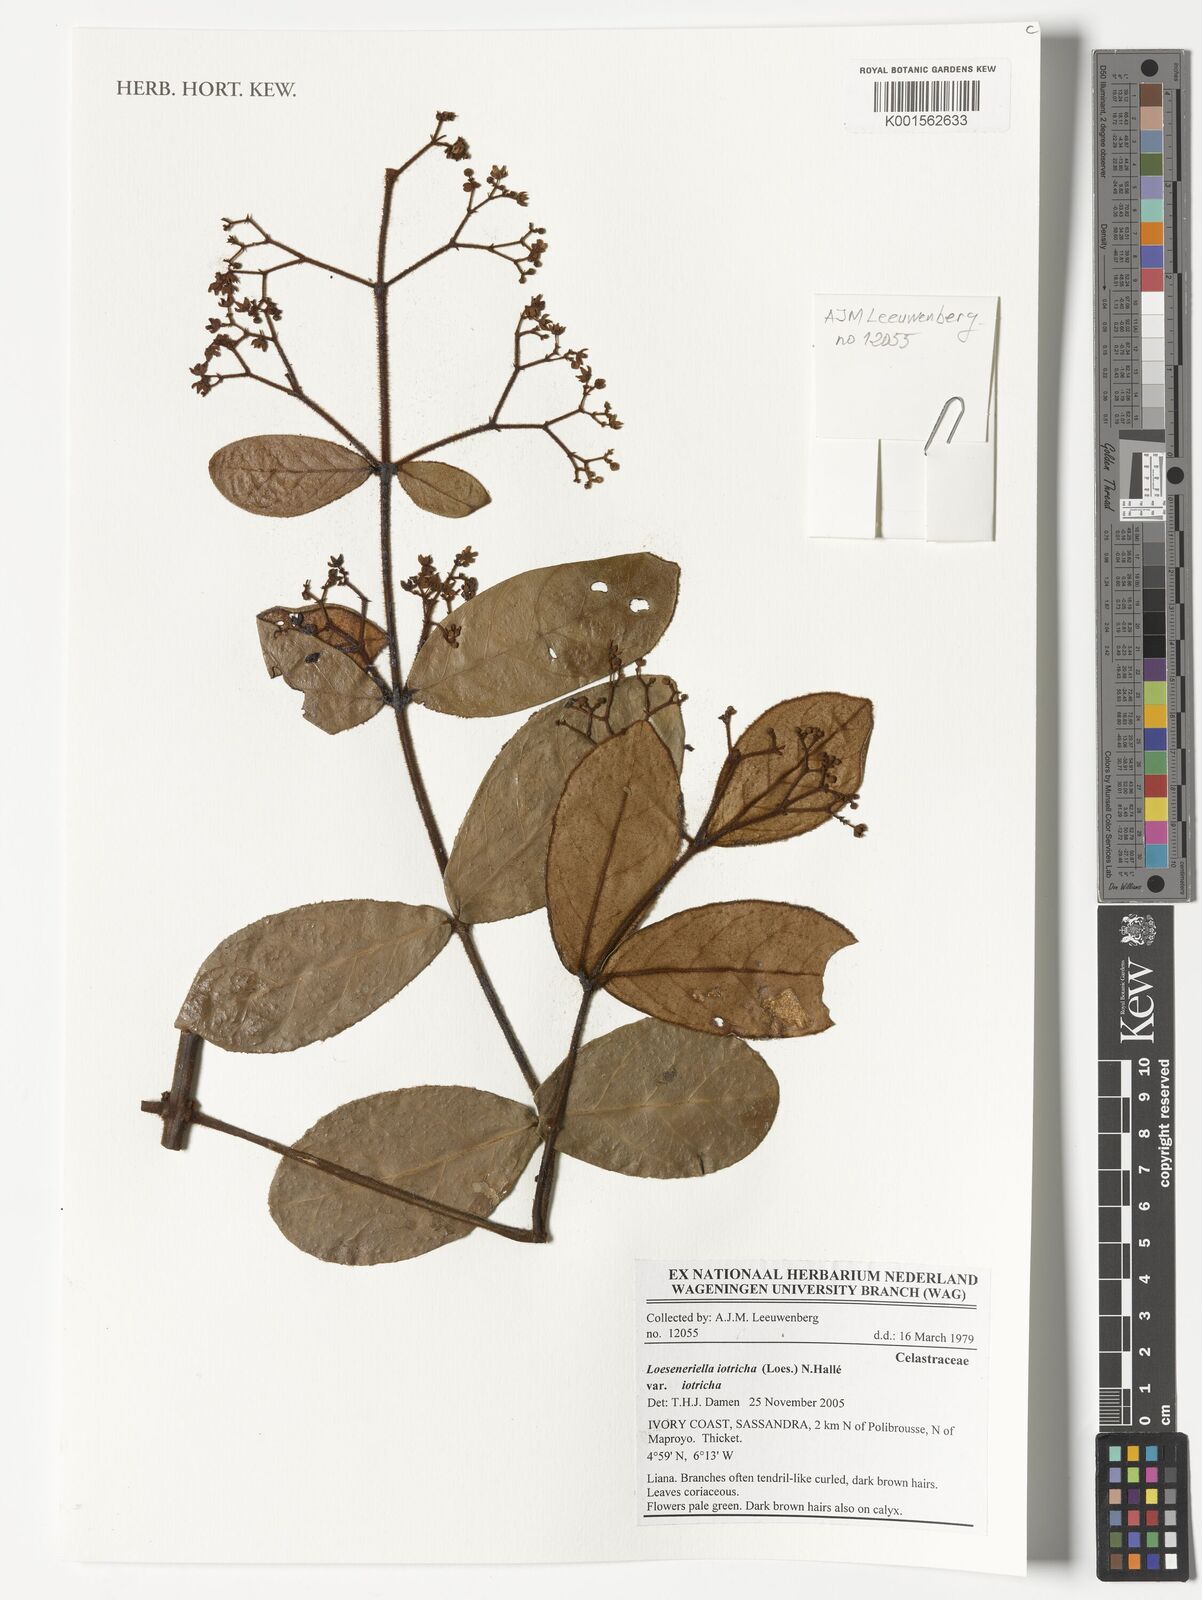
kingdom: Plantae
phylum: Tracheophyta
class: Magnoliopsida
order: Celastrales
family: Celastraceae
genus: Loeseneriella
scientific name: Loeseneriella iotricha
